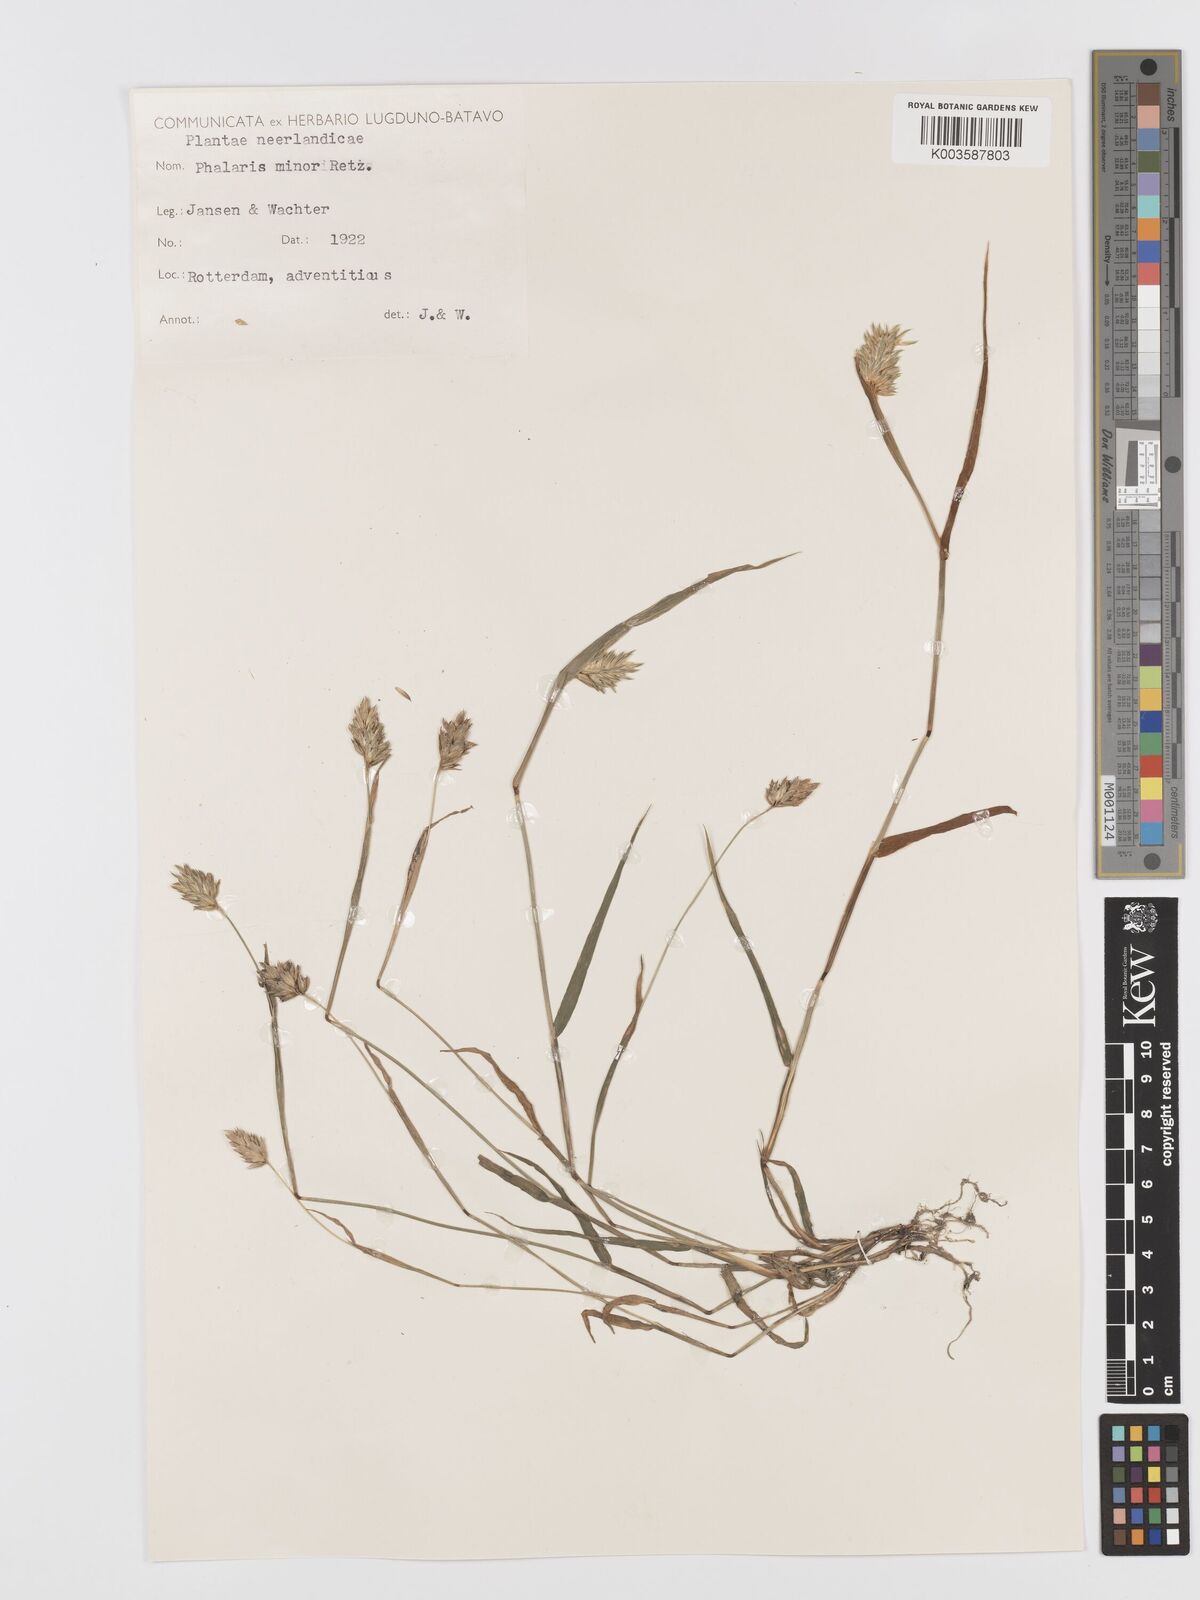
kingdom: Plantae
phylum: Tracheophyta
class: Liliopsida
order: Poales
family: Poaceae
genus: Phalaris
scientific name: Phalaris minor
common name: Littleseed canarygrass
